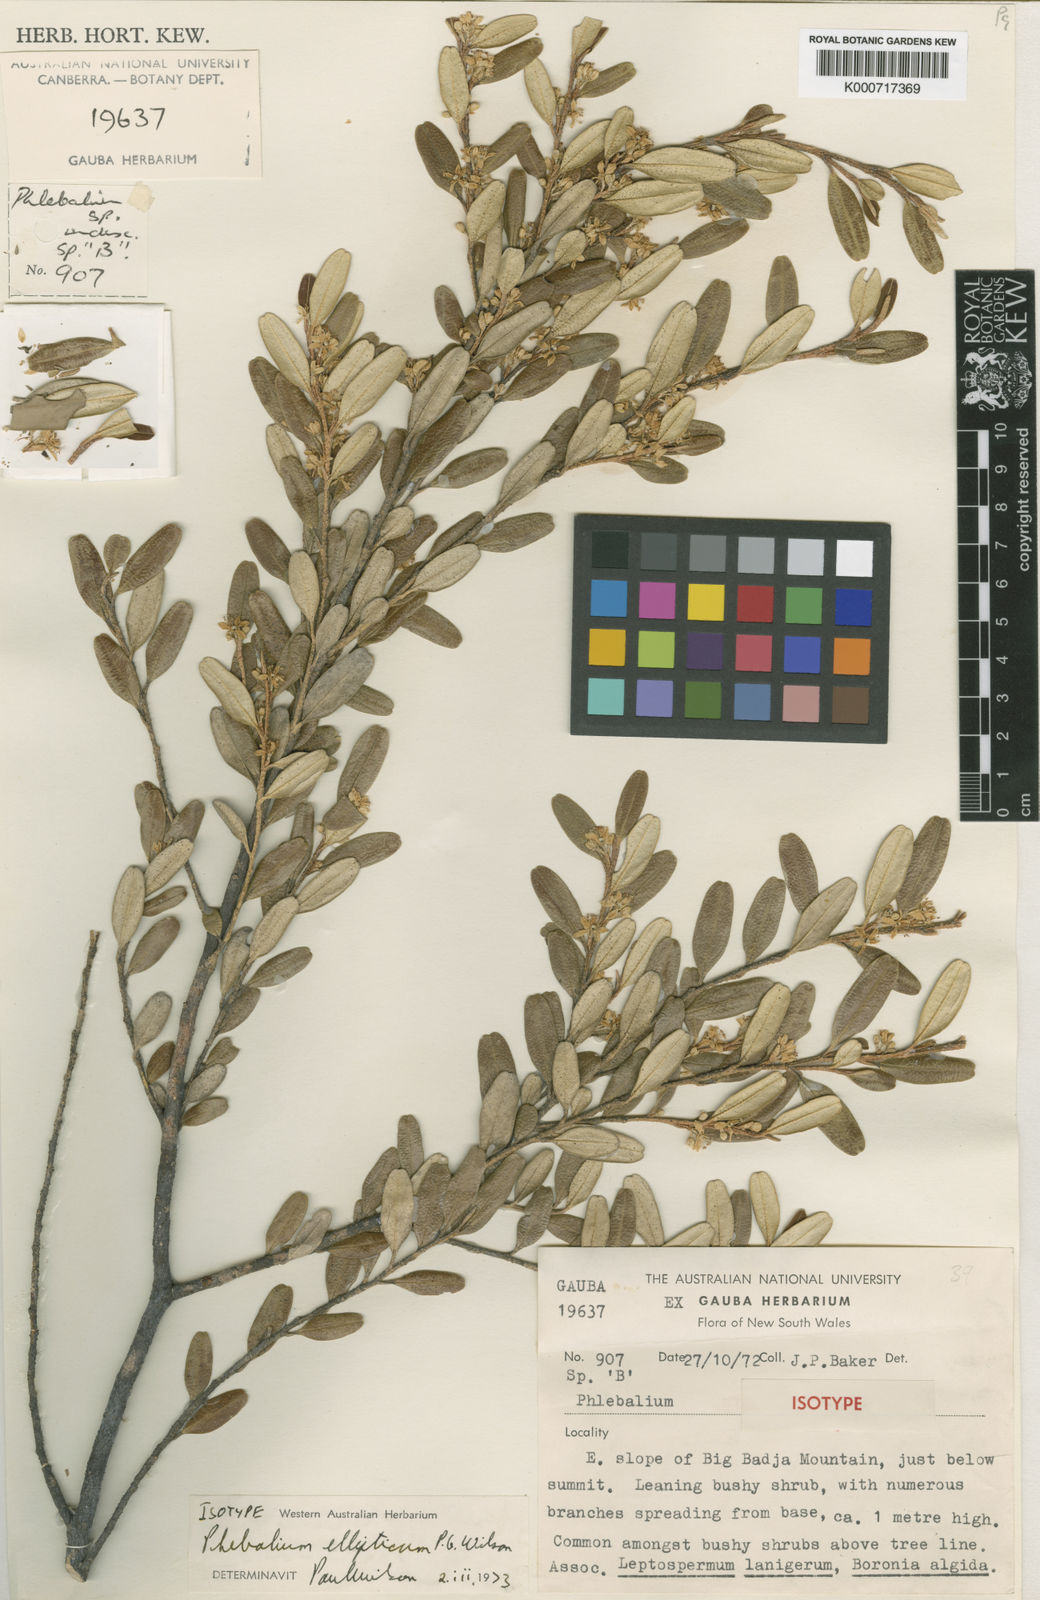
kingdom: Plantae
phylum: Tracheophyta
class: Magnoliopsida
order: Sapindales
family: Rutaceae
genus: Nematolepis
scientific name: Nematolepis elliptica
